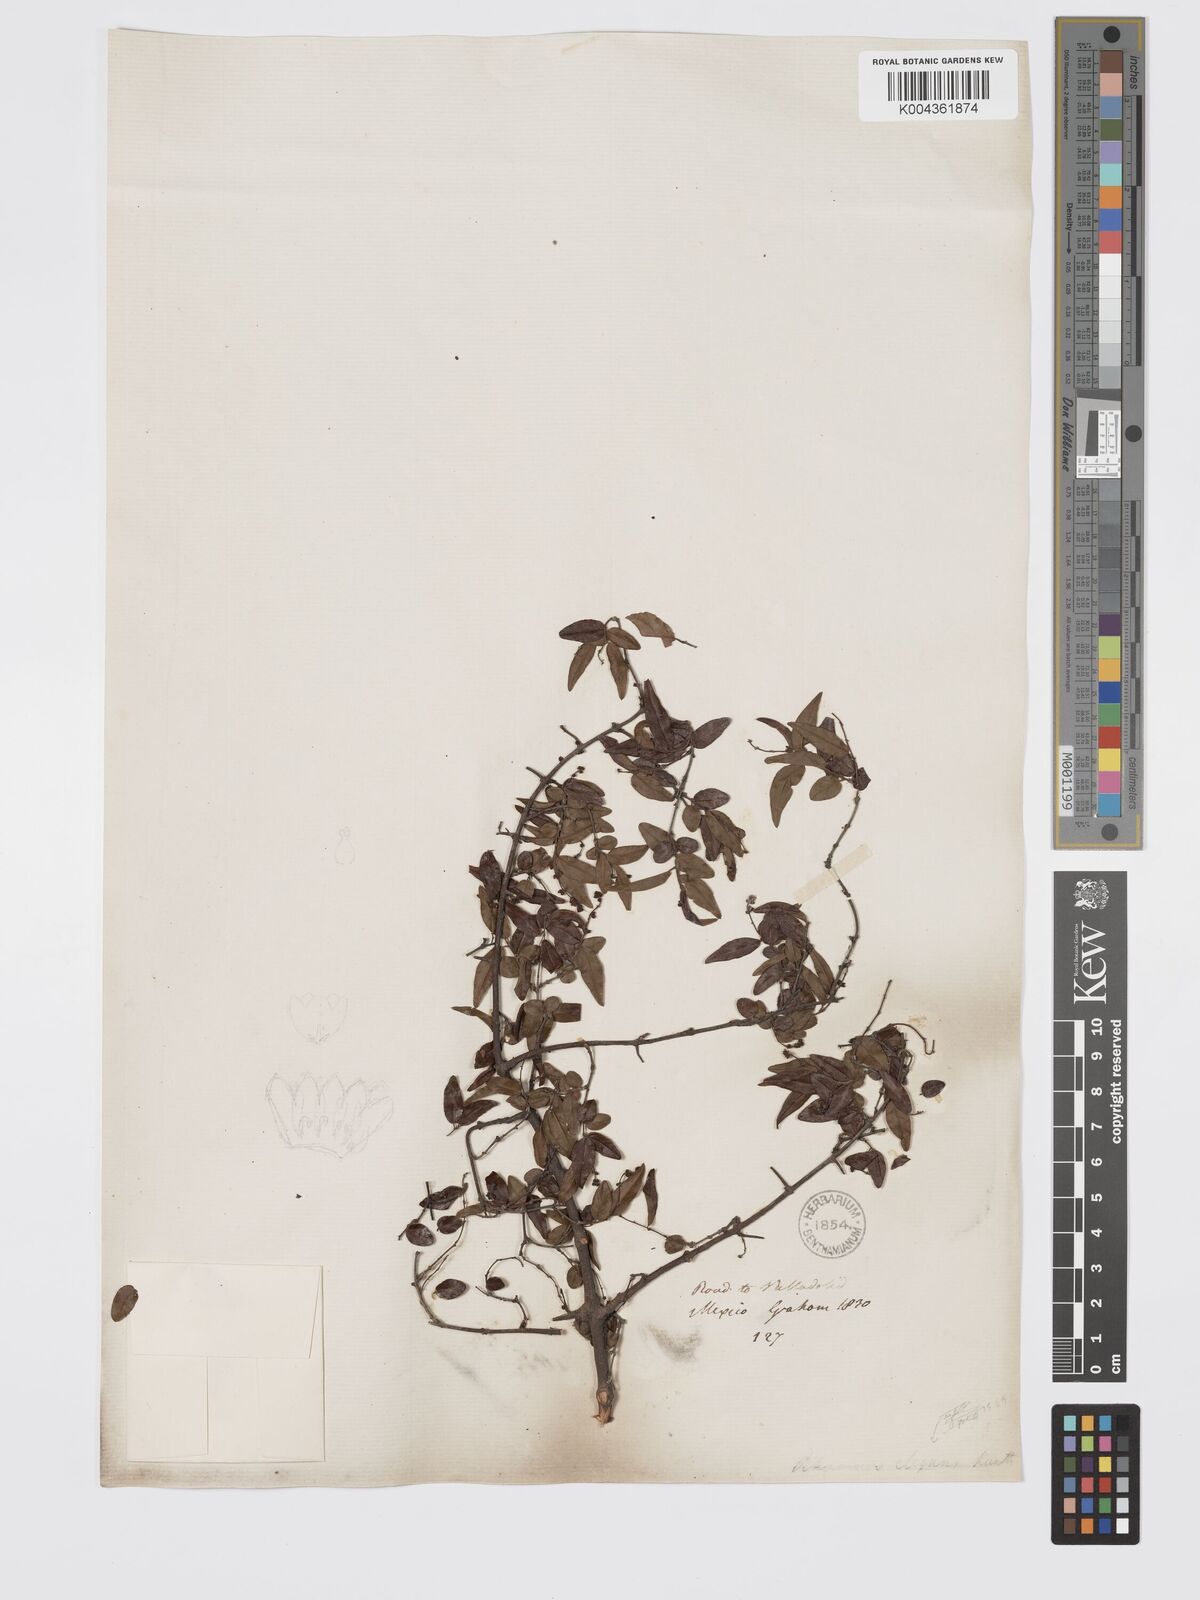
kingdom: Plantae
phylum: Tracheophyta
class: Magnoliopsida
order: Rosales
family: Rhamnaceae
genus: Sageretia
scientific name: Sageretia wrightii
